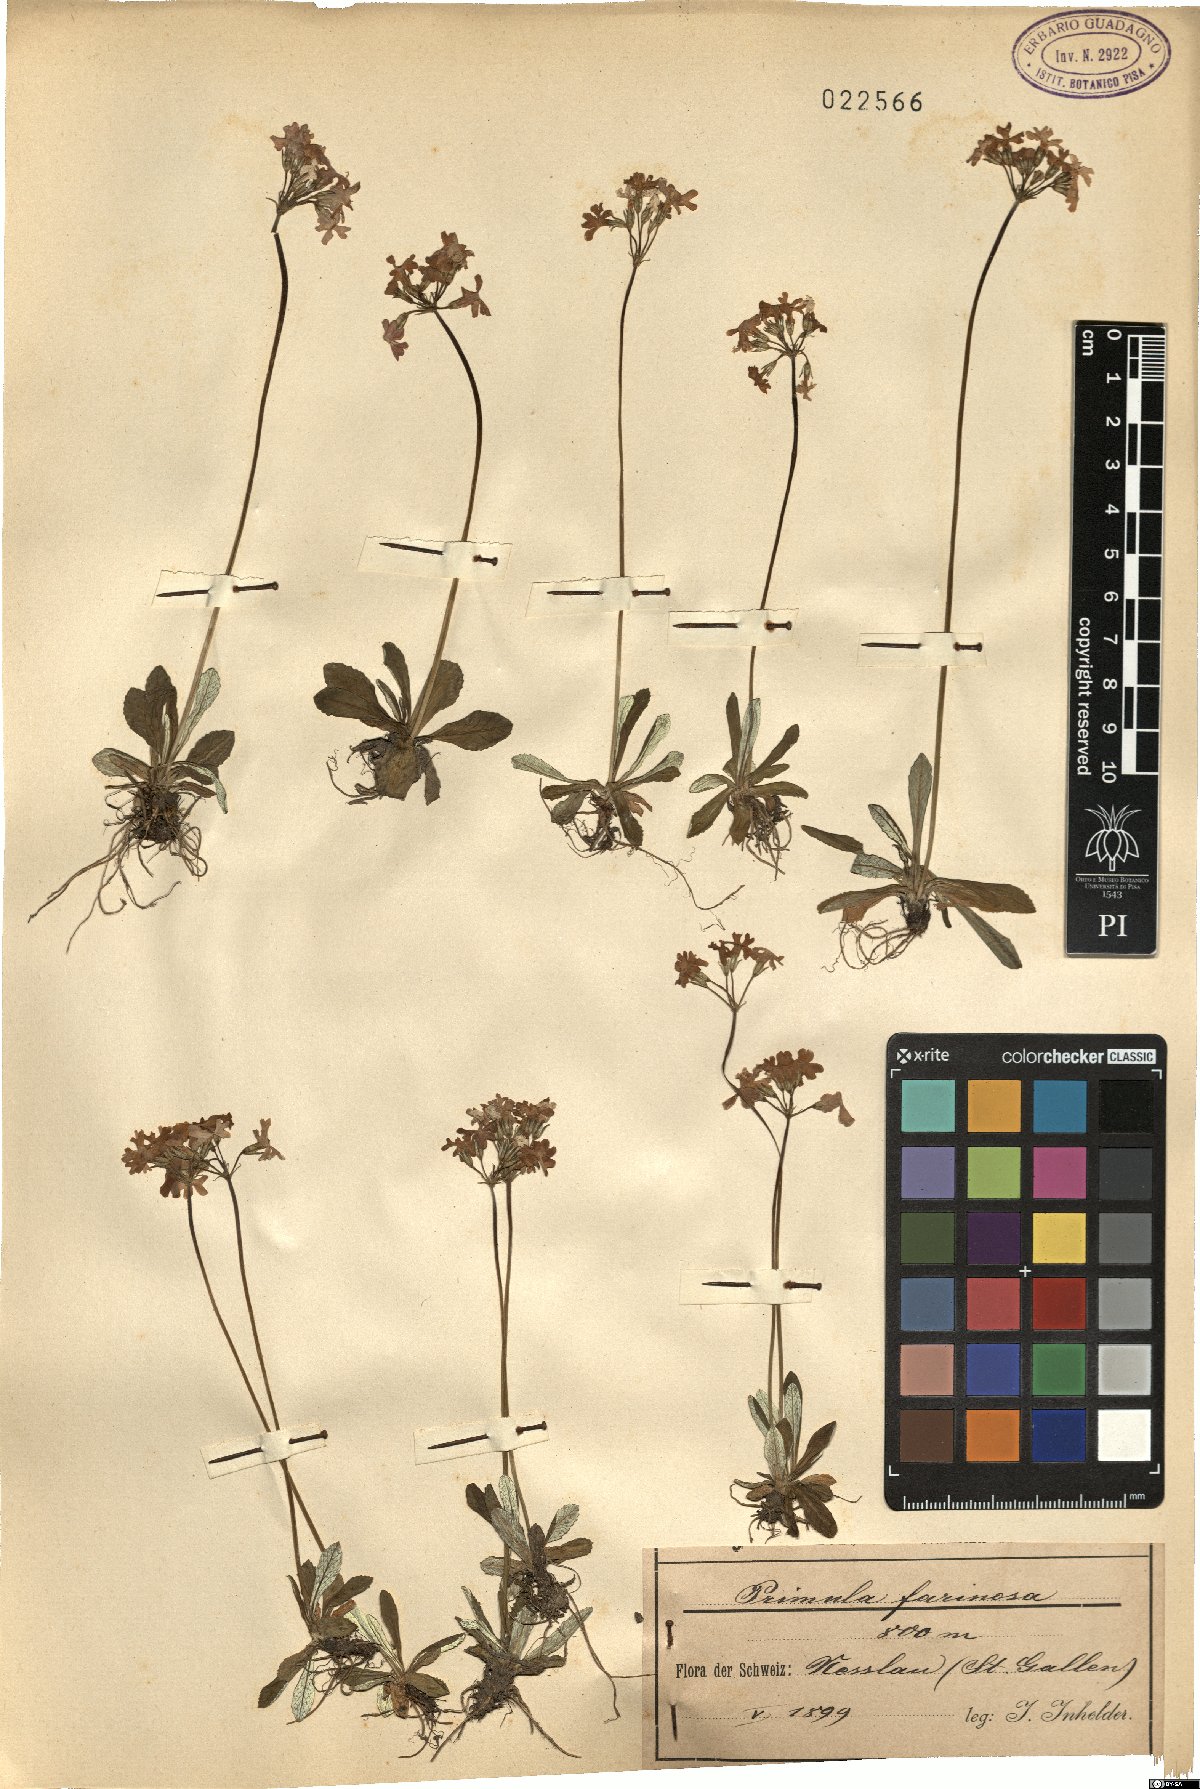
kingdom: Plantae
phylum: Tracheophyta
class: Magnoliopsida
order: Ericales
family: Primulaceae
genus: Primula
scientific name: Primula farinosa
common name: Bird's-eye primrose
